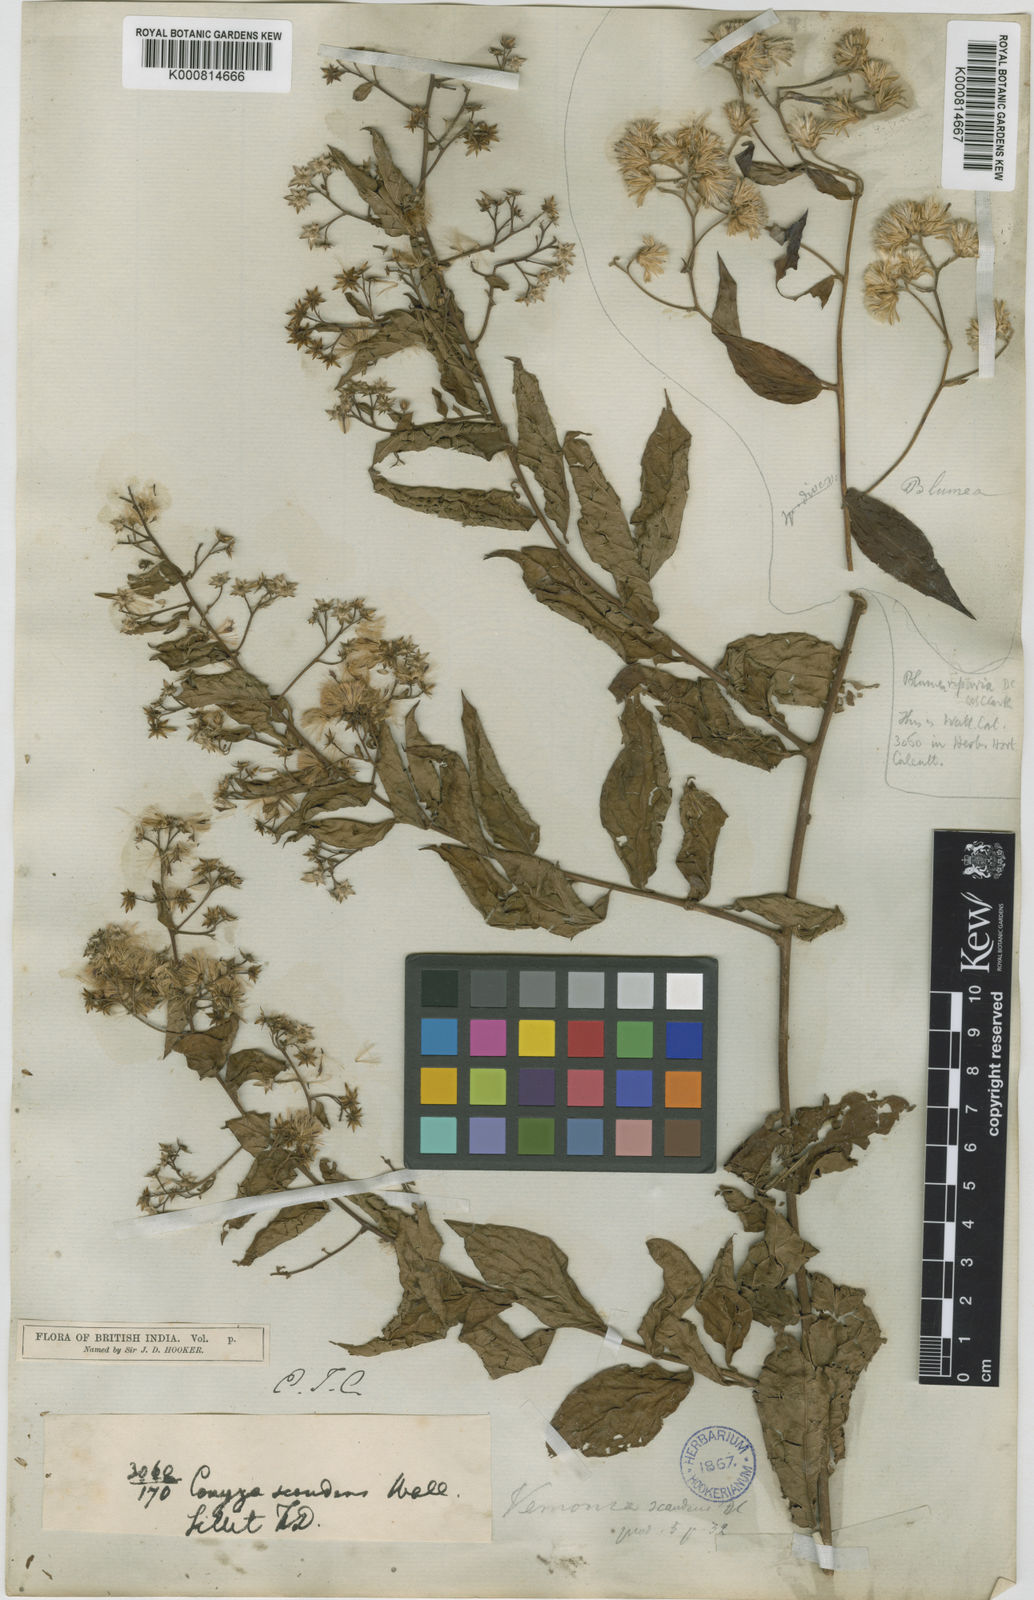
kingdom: Plantae
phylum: Tracheophyta
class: Magnoliopsida
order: Asterales
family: Asteraceae
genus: Decaneuropsis
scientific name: Decaneuropsis obovata
